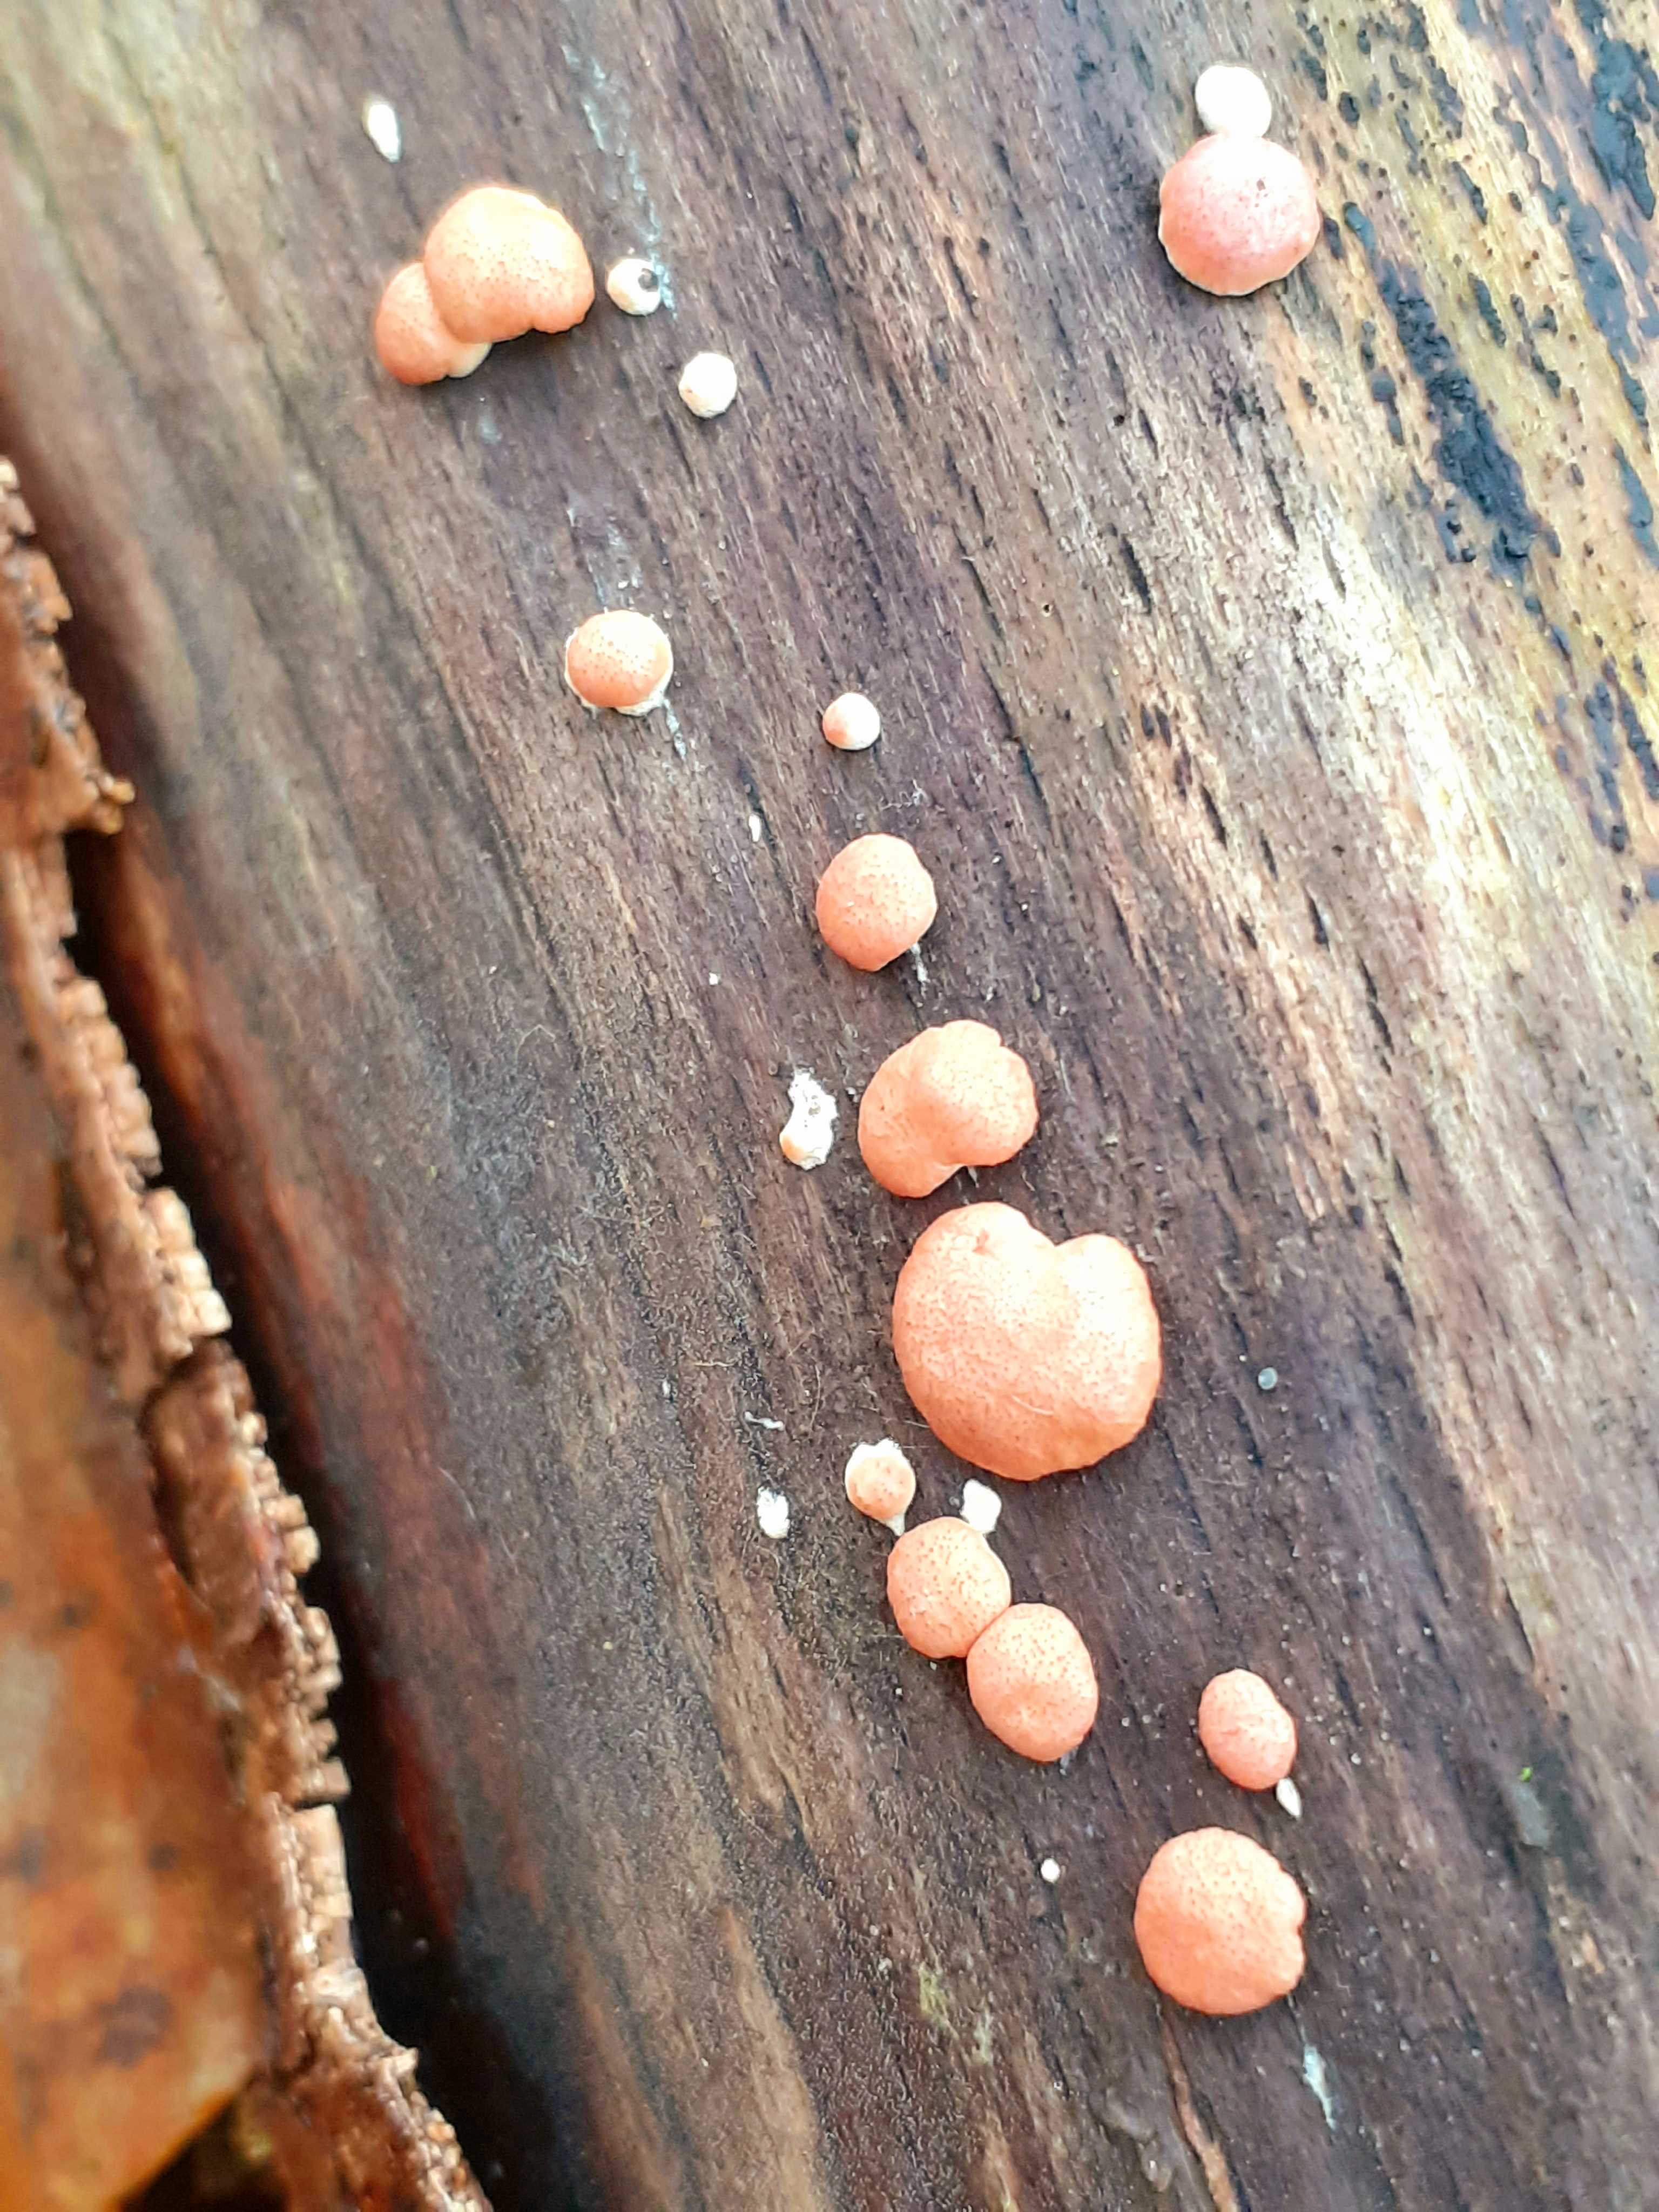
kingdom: Fungi
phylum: Ascomycota
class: Sordariomycetes
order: Hypocreales
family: Hypocreaceae
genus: Trichoderma
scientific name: Trichoderma europaeum
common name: rosabrun kødkerne
